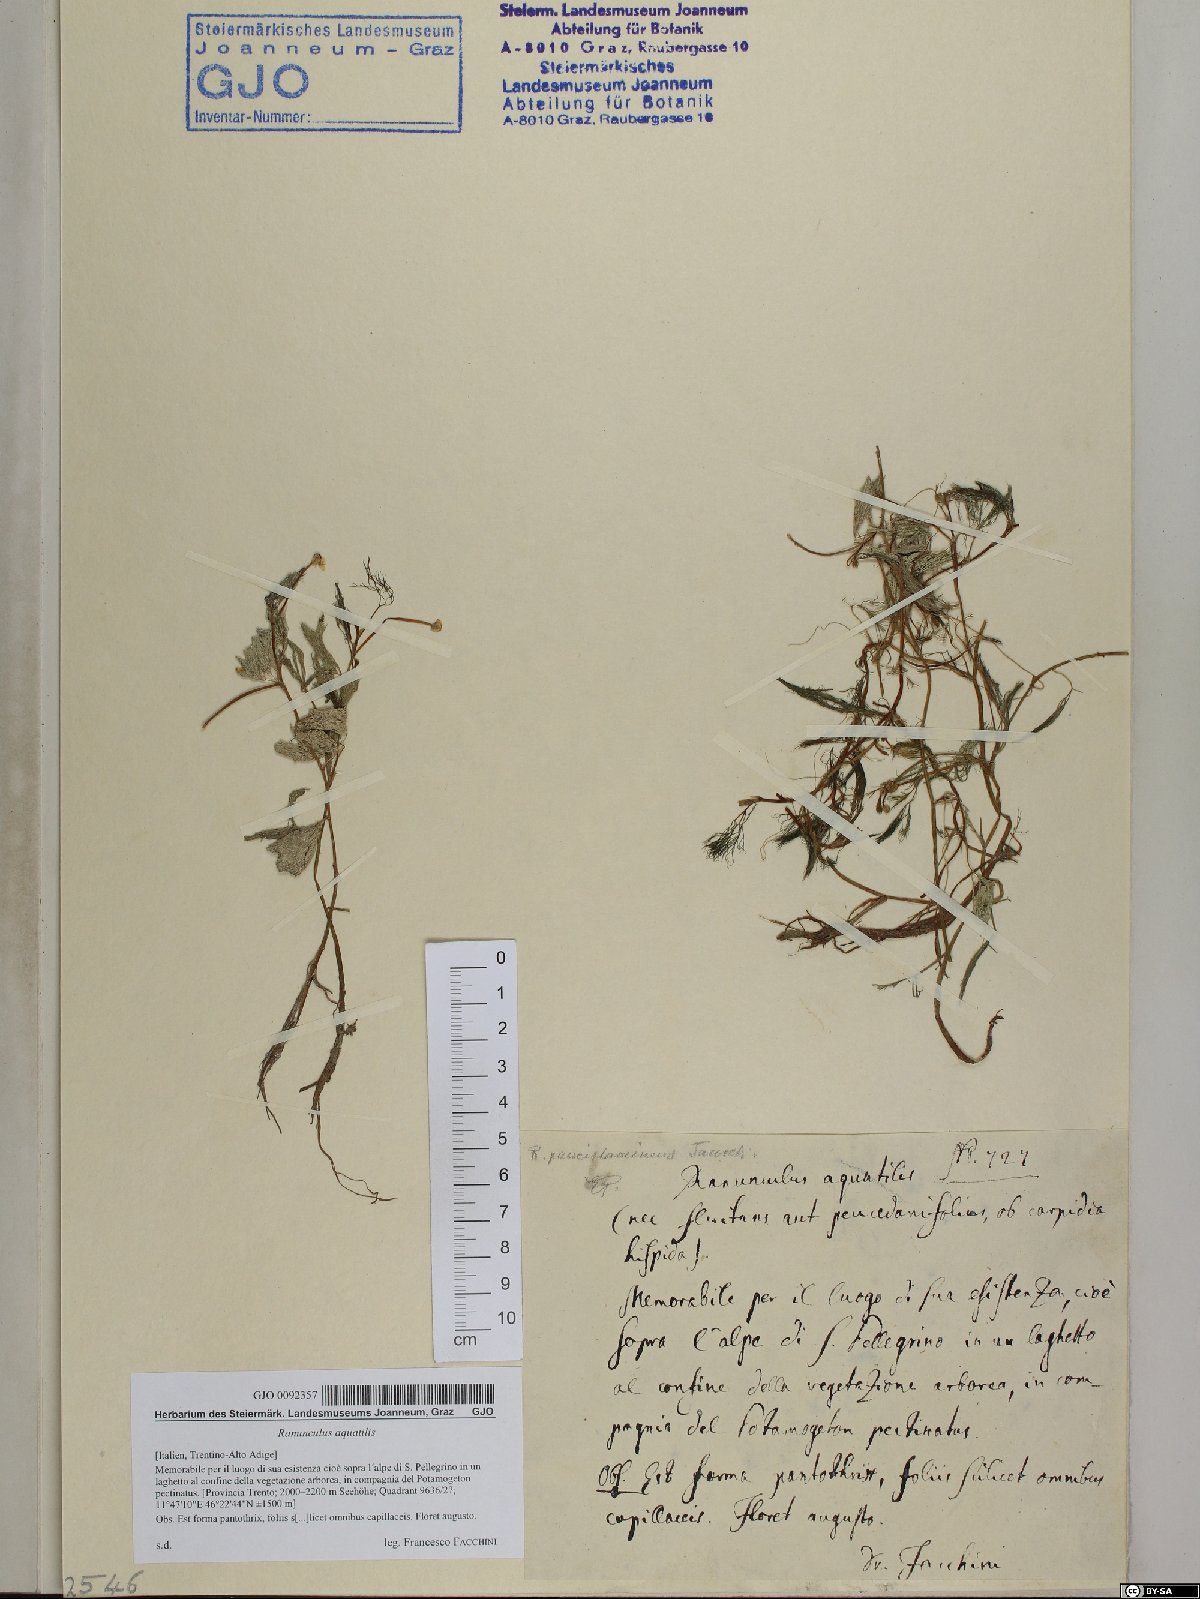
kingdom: Plantae
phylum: Tracheophyta
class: Magnoliopsida
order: Ranunculales
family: Ranunculaceae
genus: Ranunculus
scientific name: Ranunculus aquatilis
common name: Common water-crowfoot
